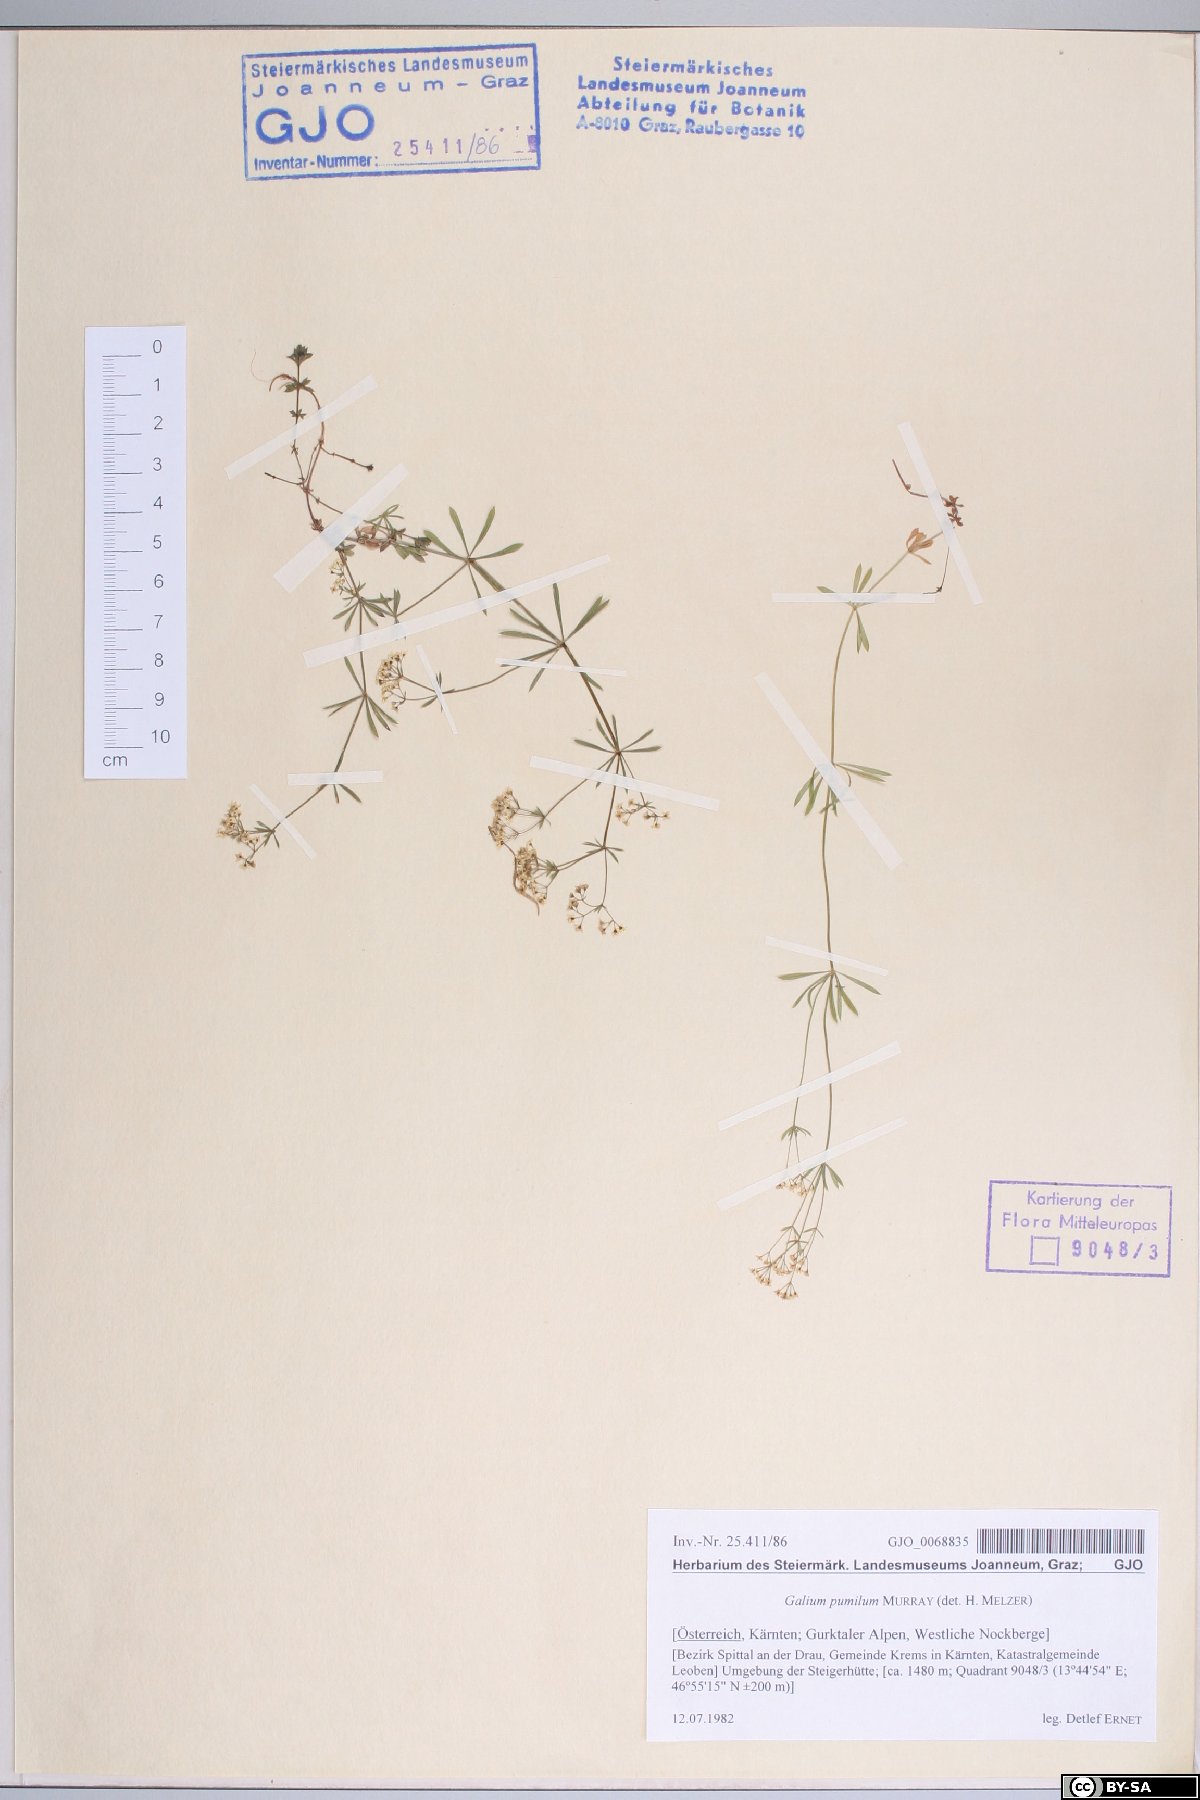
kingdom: Plantae
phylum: Tracheophyta
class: Magnoliopsida
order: Gentianales
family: Rubiaceae
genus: Galium
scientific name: Galium pumilum
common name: Slender bedstraw
